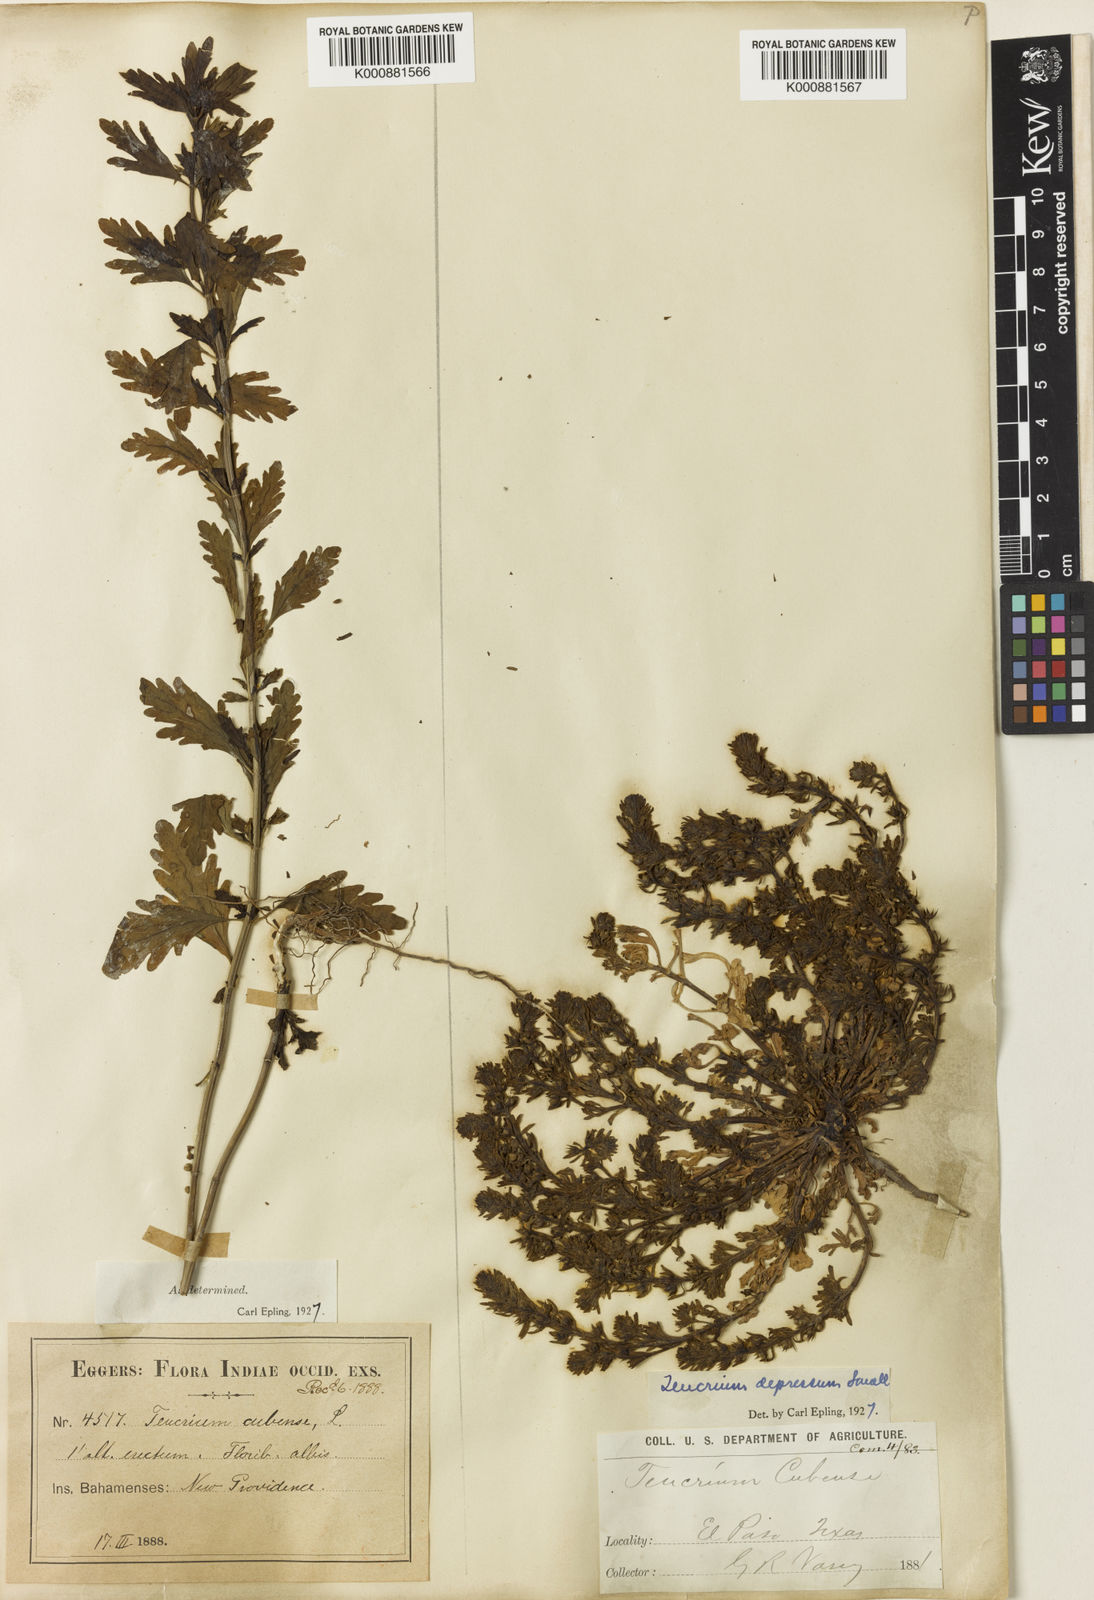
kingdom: Plantae
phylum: Tracheophyta
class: Magnoliopsida
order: Lamiales
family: Lamiaceae
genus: Teucrium
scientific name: Teucrium cubense
